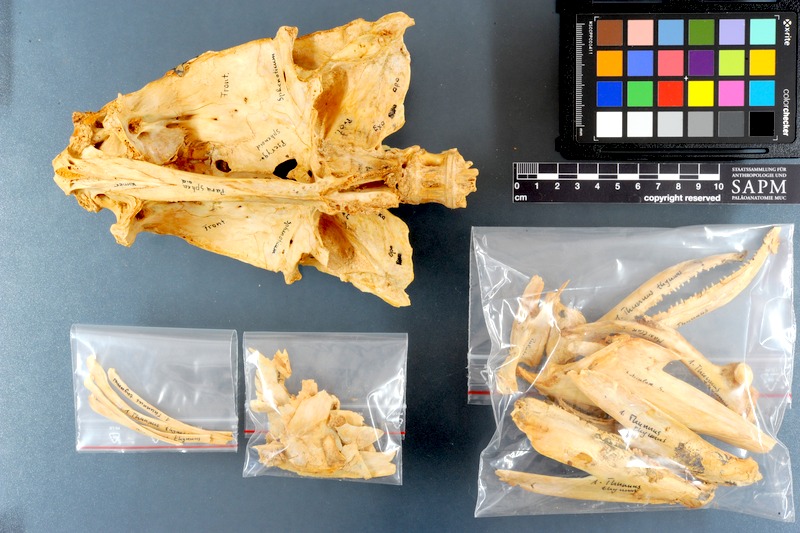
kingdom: Animalia
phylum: Chordata
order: Perciformes
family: Scombridae
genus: Thunnus
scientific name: Thunnus thynnus
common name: Bluefin tuna
